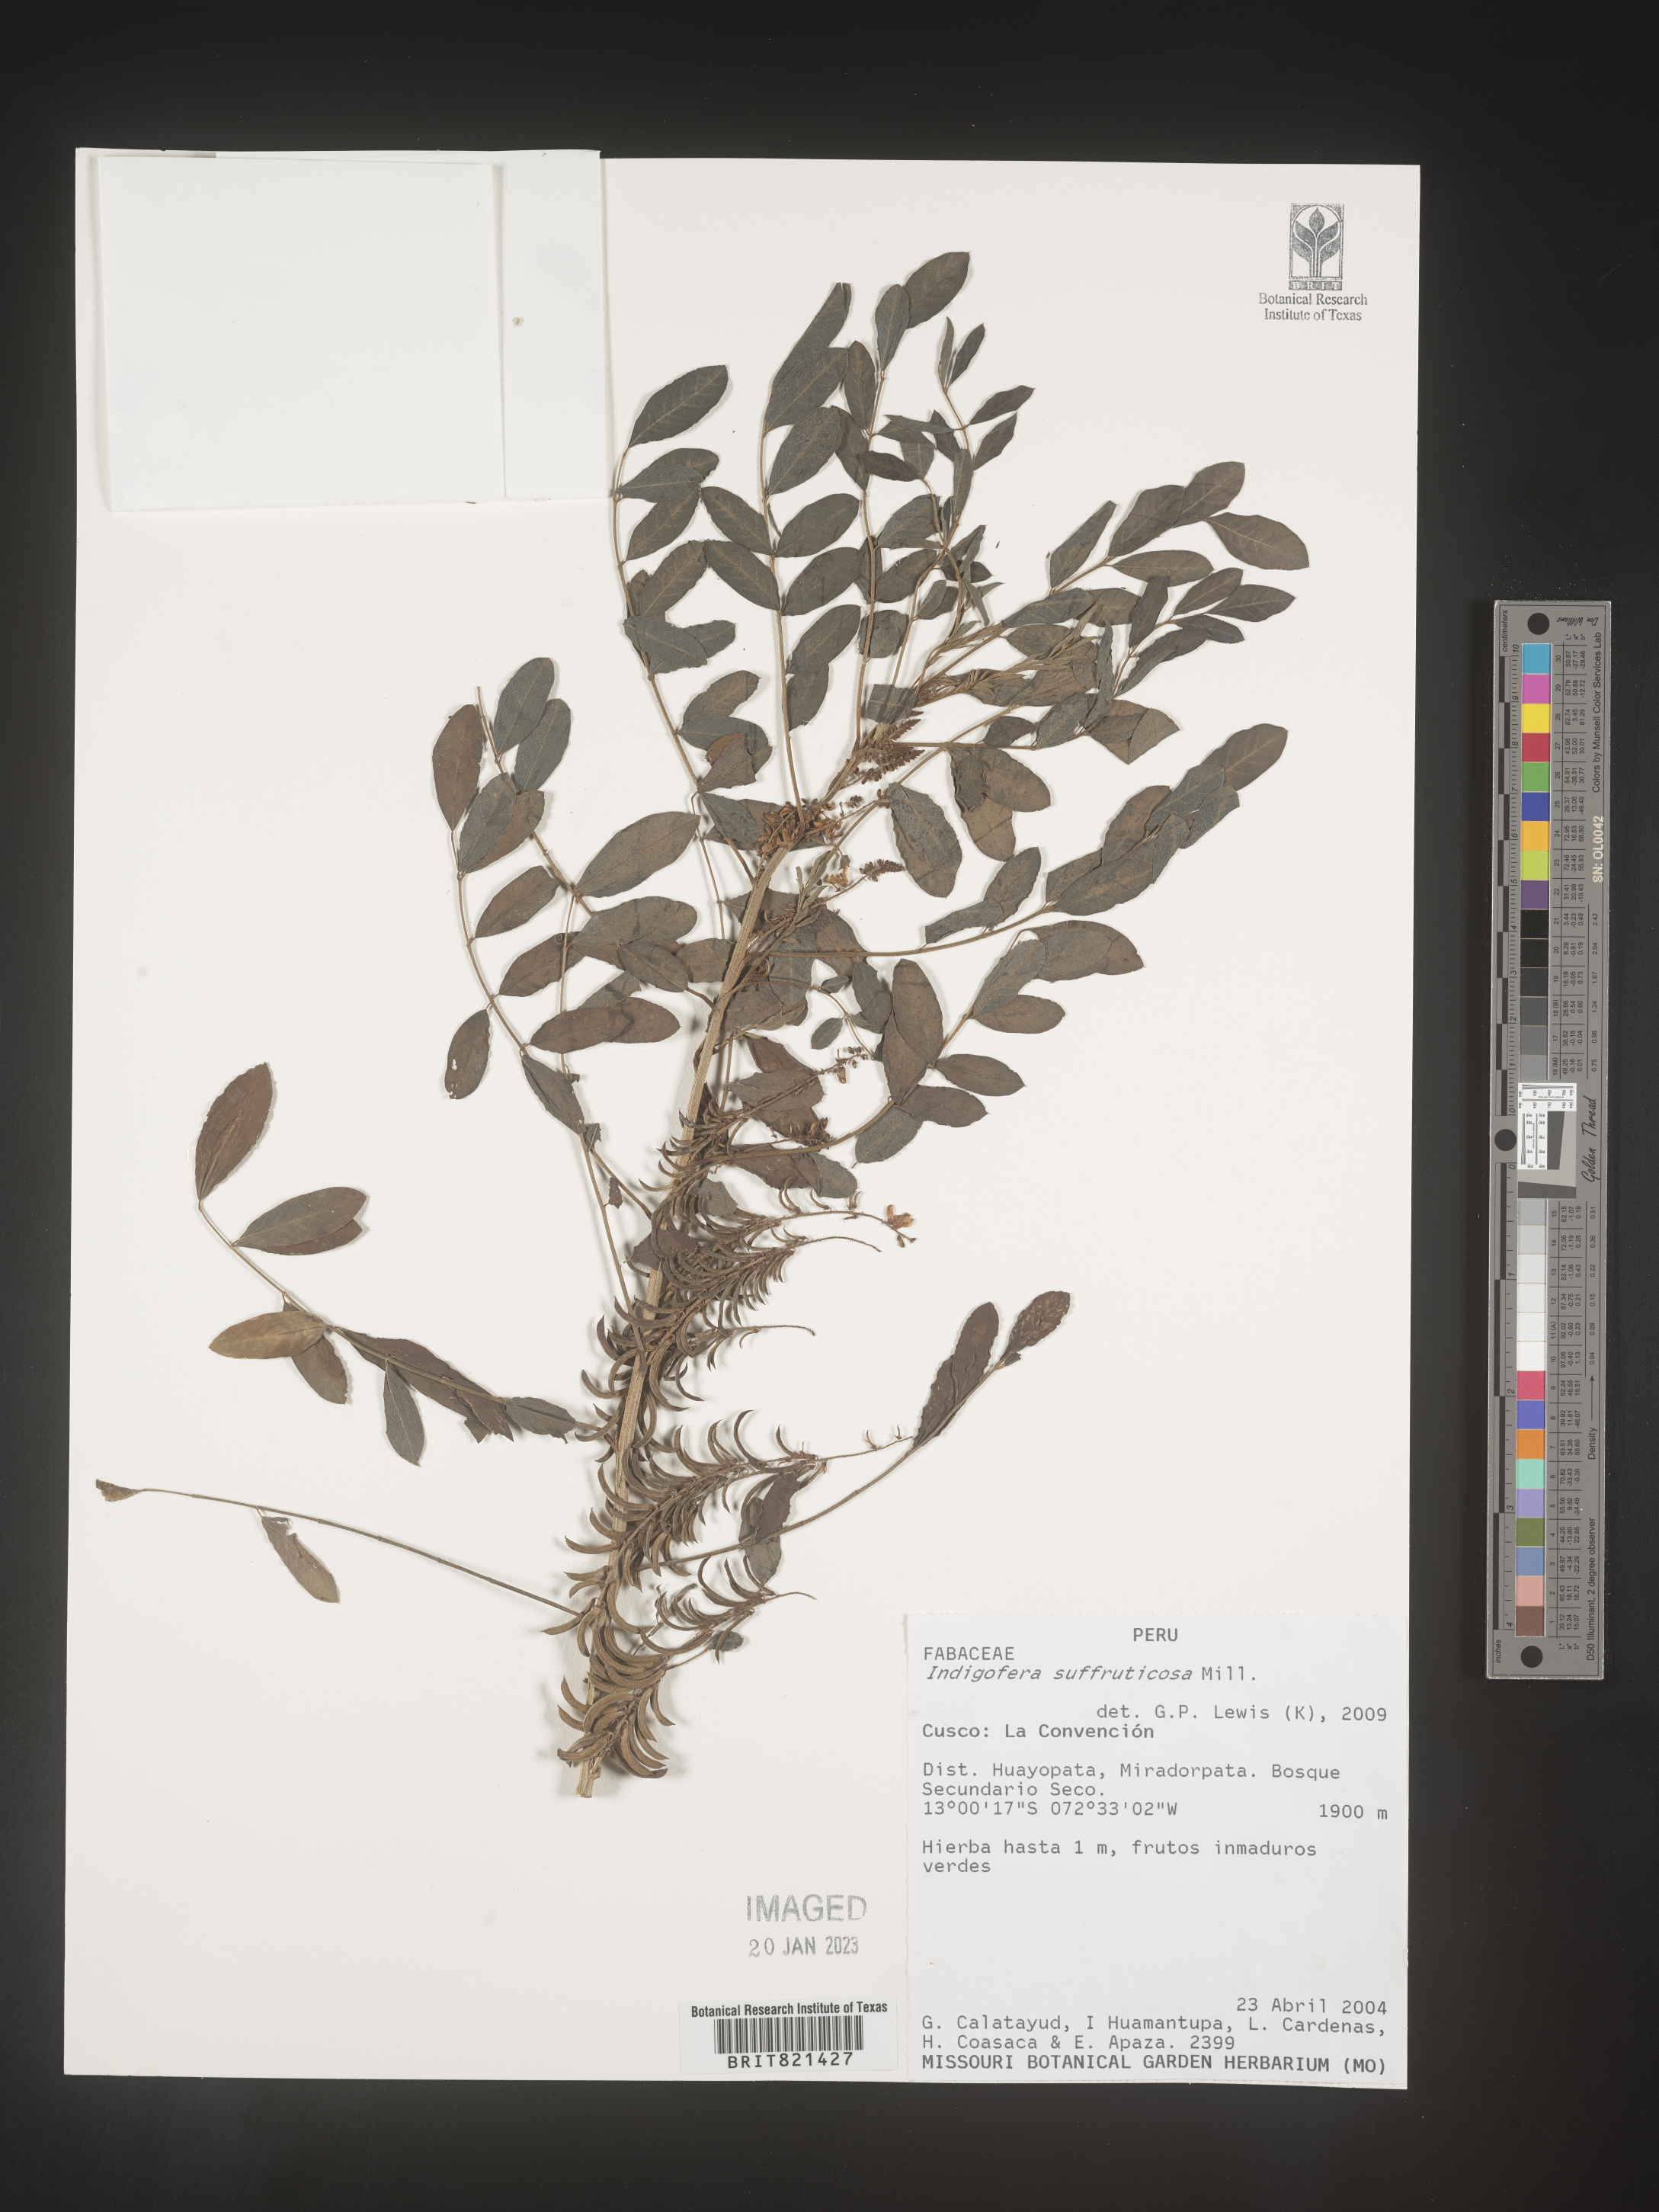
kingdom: Plantae
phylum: Tracheophyta
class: Magnoliopsida
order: Fabales
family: Fabaceae
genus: Indigofera
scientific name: Indigofera
